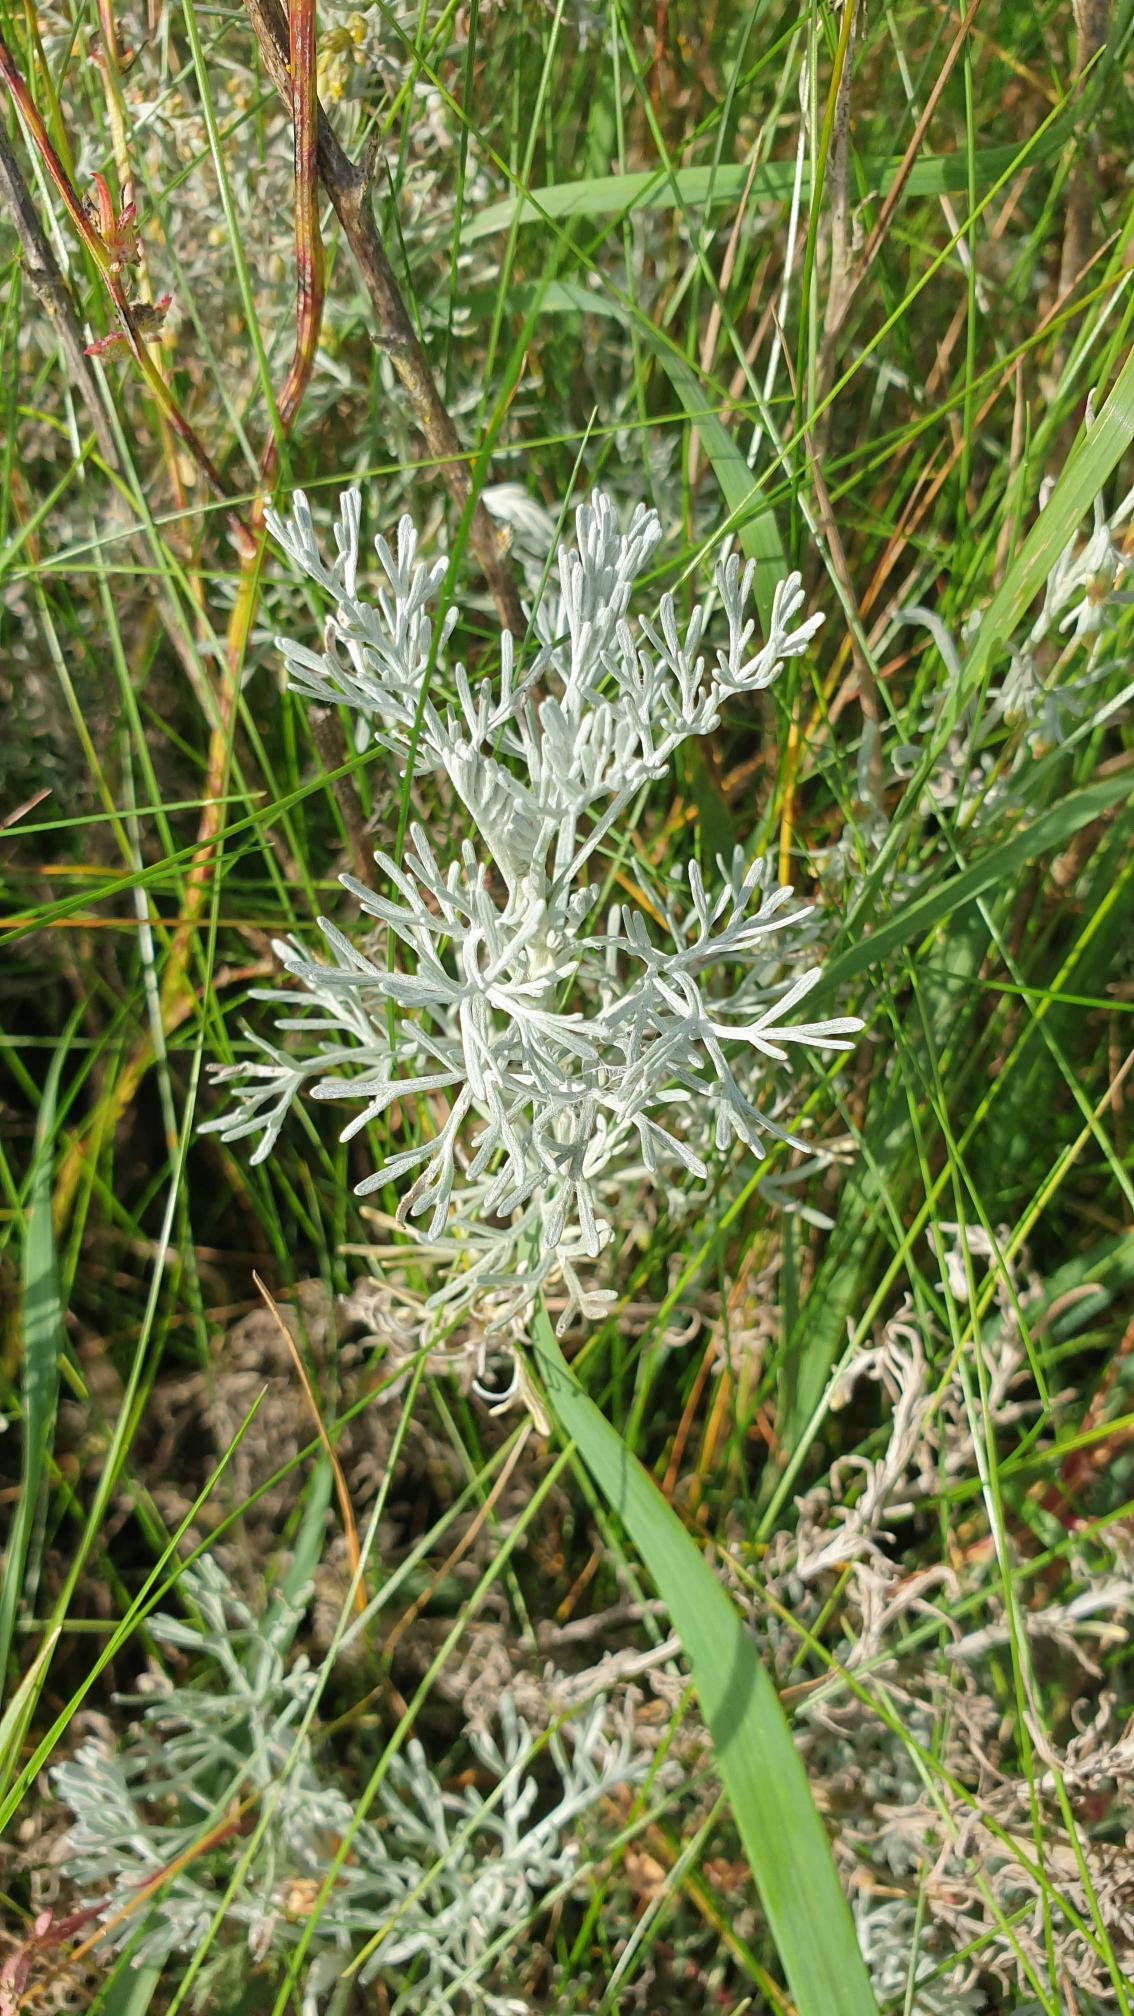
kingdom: Plantae
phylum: Tracheophyta
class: Magnoliopsida
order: Asterales
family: Asteraceae
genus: Artemisia
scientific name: Artemisia maritima
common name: Strandmalurt
